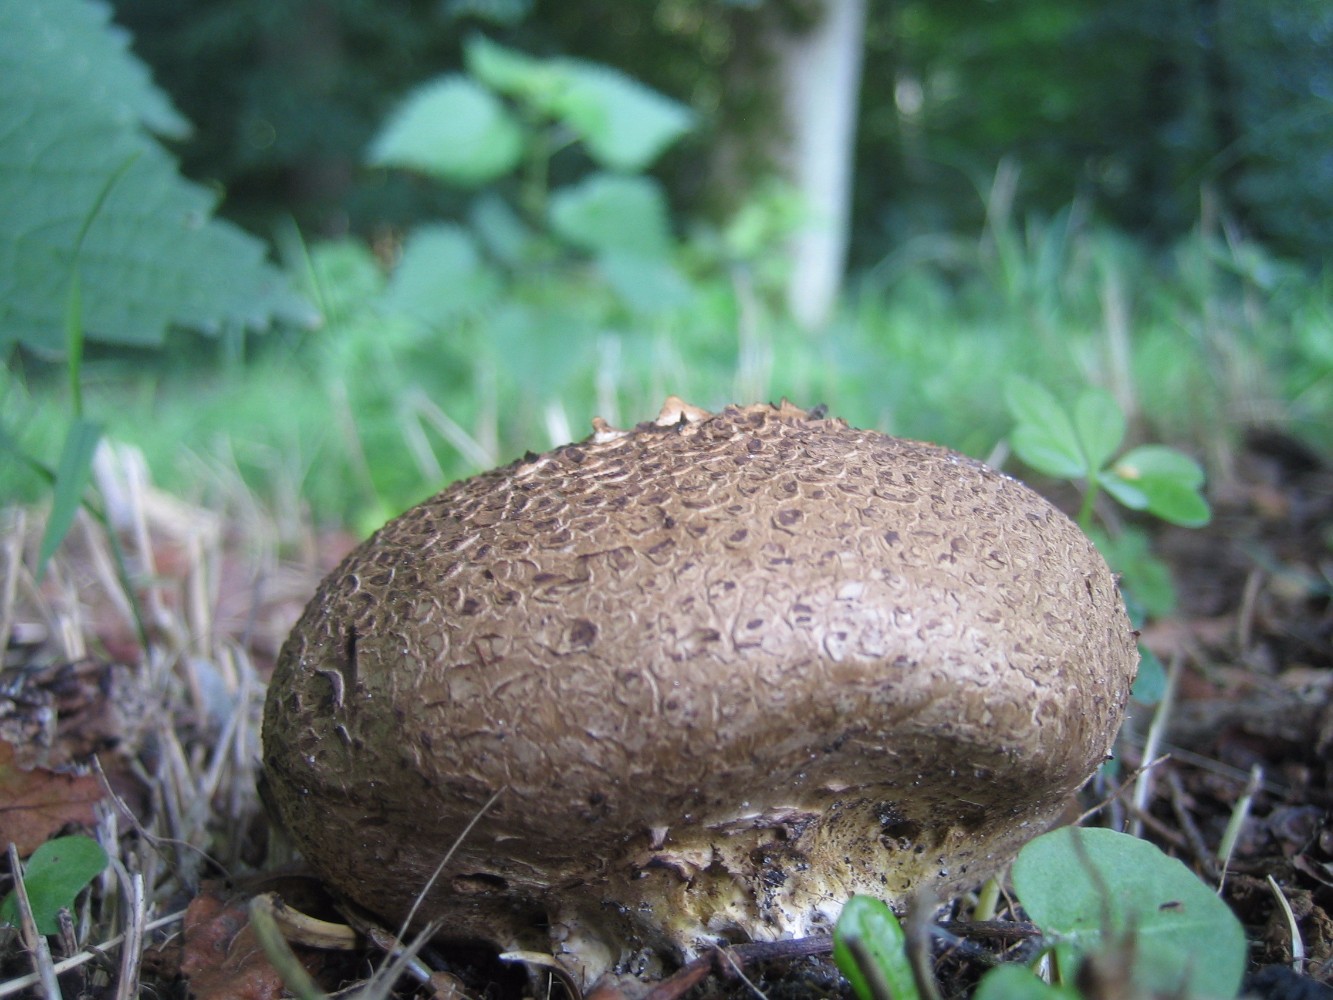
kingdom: Fungi
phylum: Basidiomycota
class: Agaricomycetes
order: Boletales
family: Sclerodermataceae
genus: Scleroderma
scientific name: Scleroderma verrucosum
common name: stilket bruskbold
